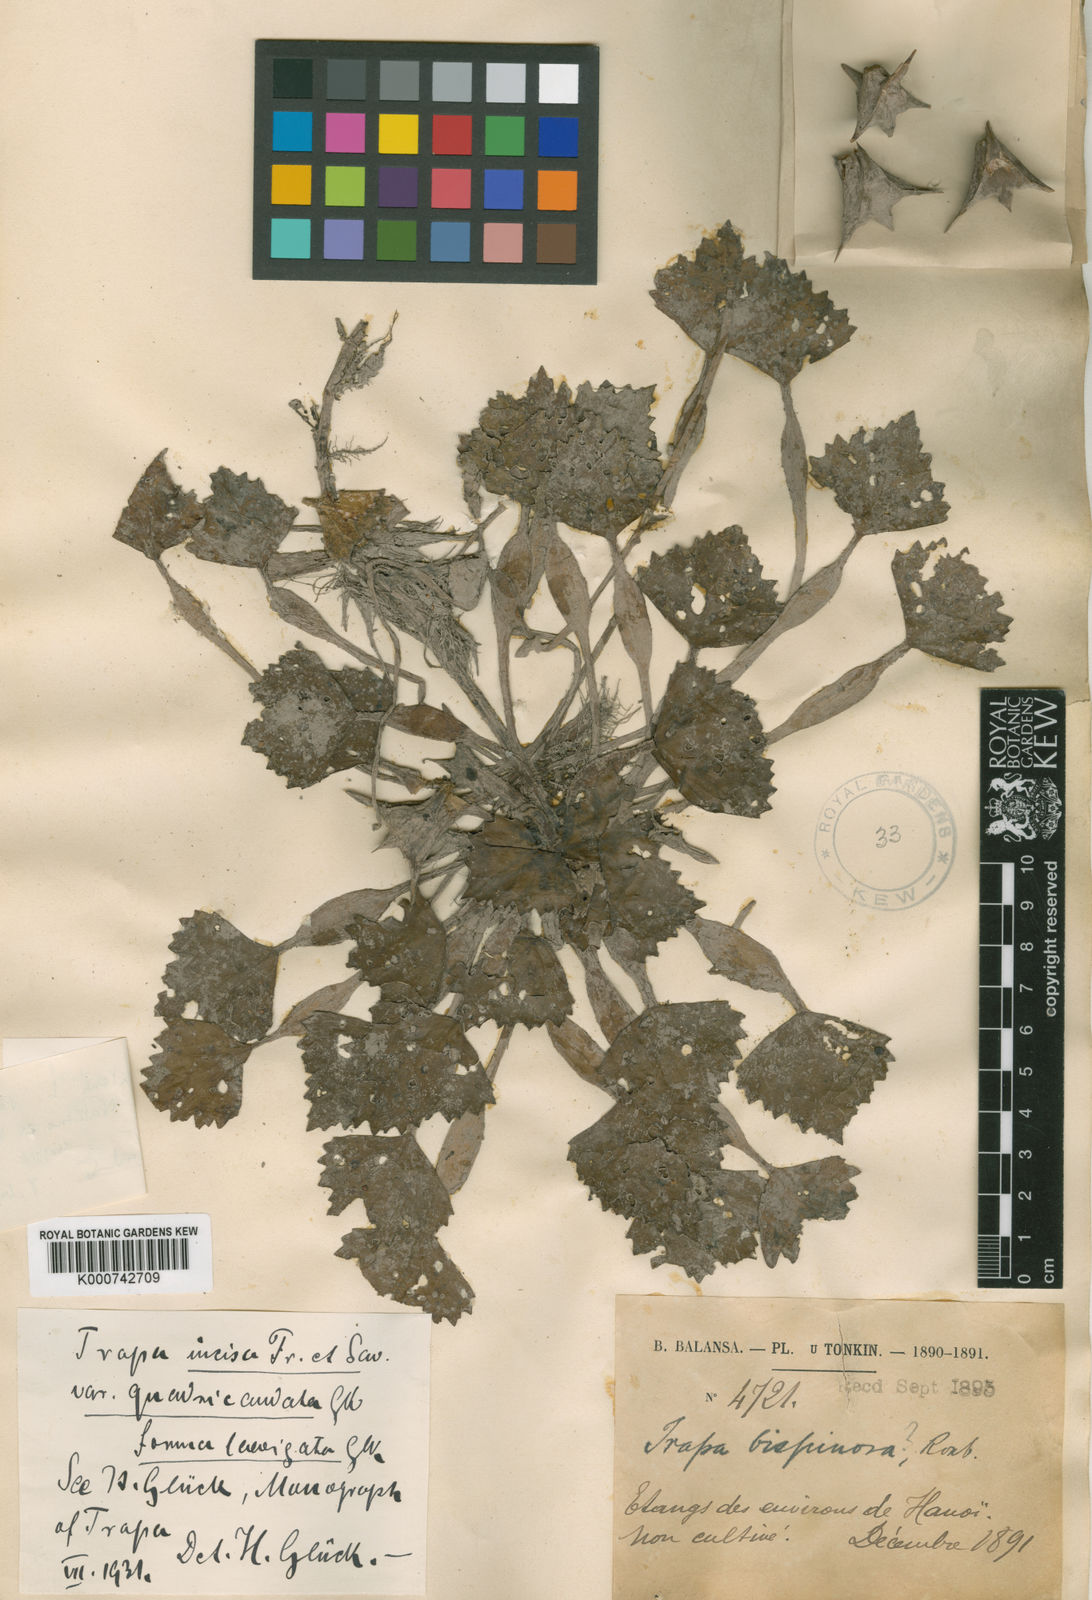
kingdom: Plantae
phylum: Tracheophyta
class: Magnoliopsida
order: Myrtales
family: Lythraceae
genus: Trapa
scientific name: Trapa natans
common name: Water chestnut
